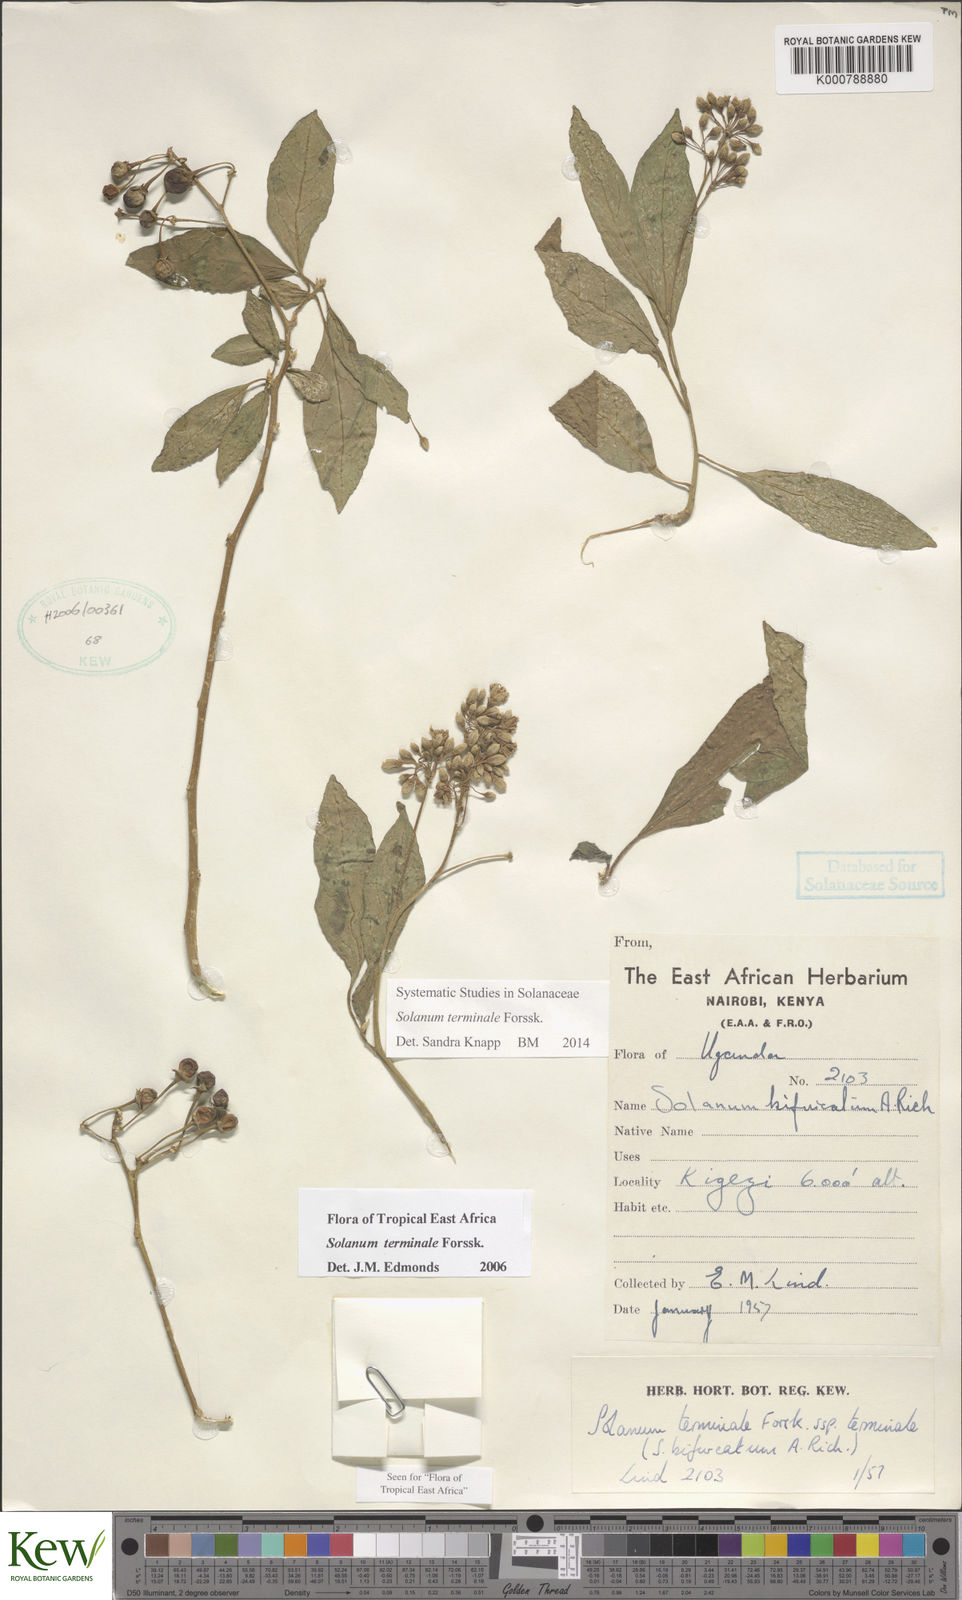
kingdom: Plantae
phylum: Tracheophyta
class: Magnoliopsida
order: Solanales
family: Solanaceae
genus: Solanum
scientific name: Solanum terminale
